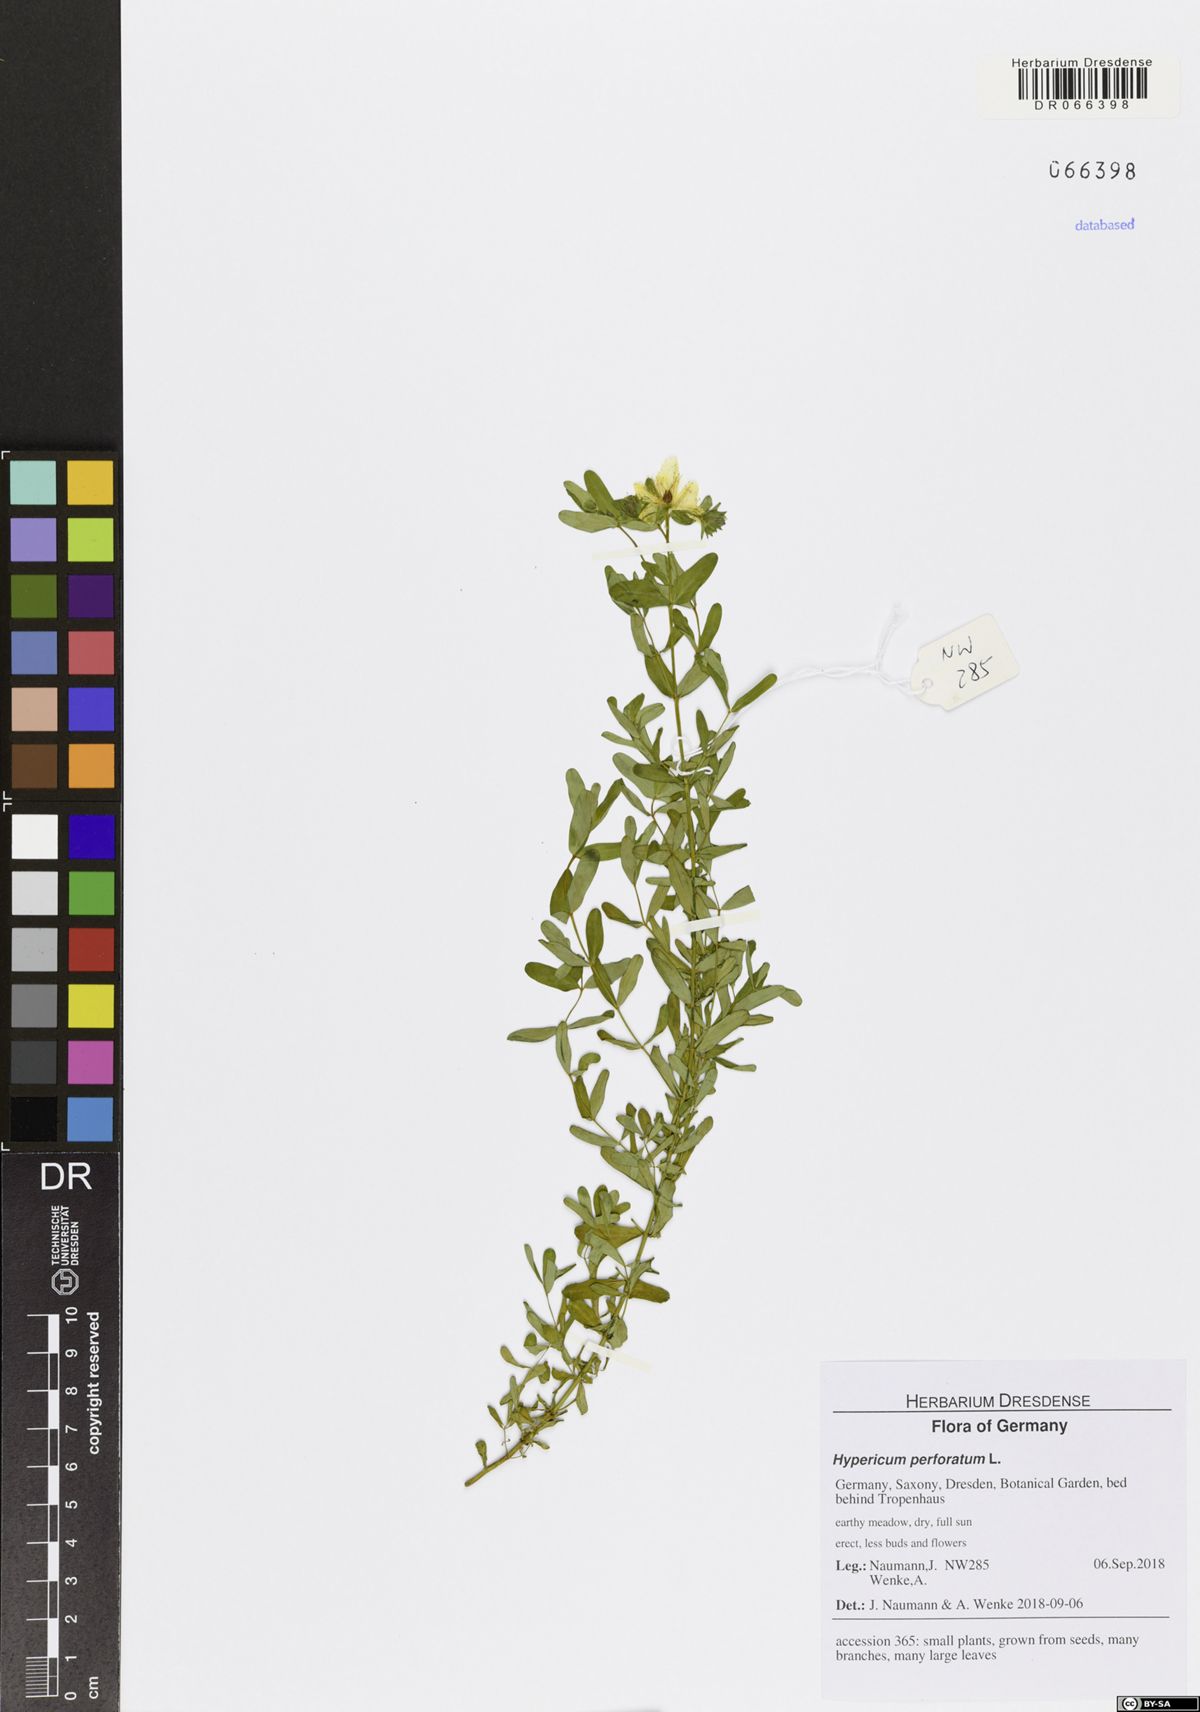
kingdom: Plantae
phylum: Tracheophyta
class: Magnoliopsida
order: Malpighiales
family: Hypericaceae
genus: Hypericum
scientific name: Hypericum perforatum
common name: Common st. johnswort
